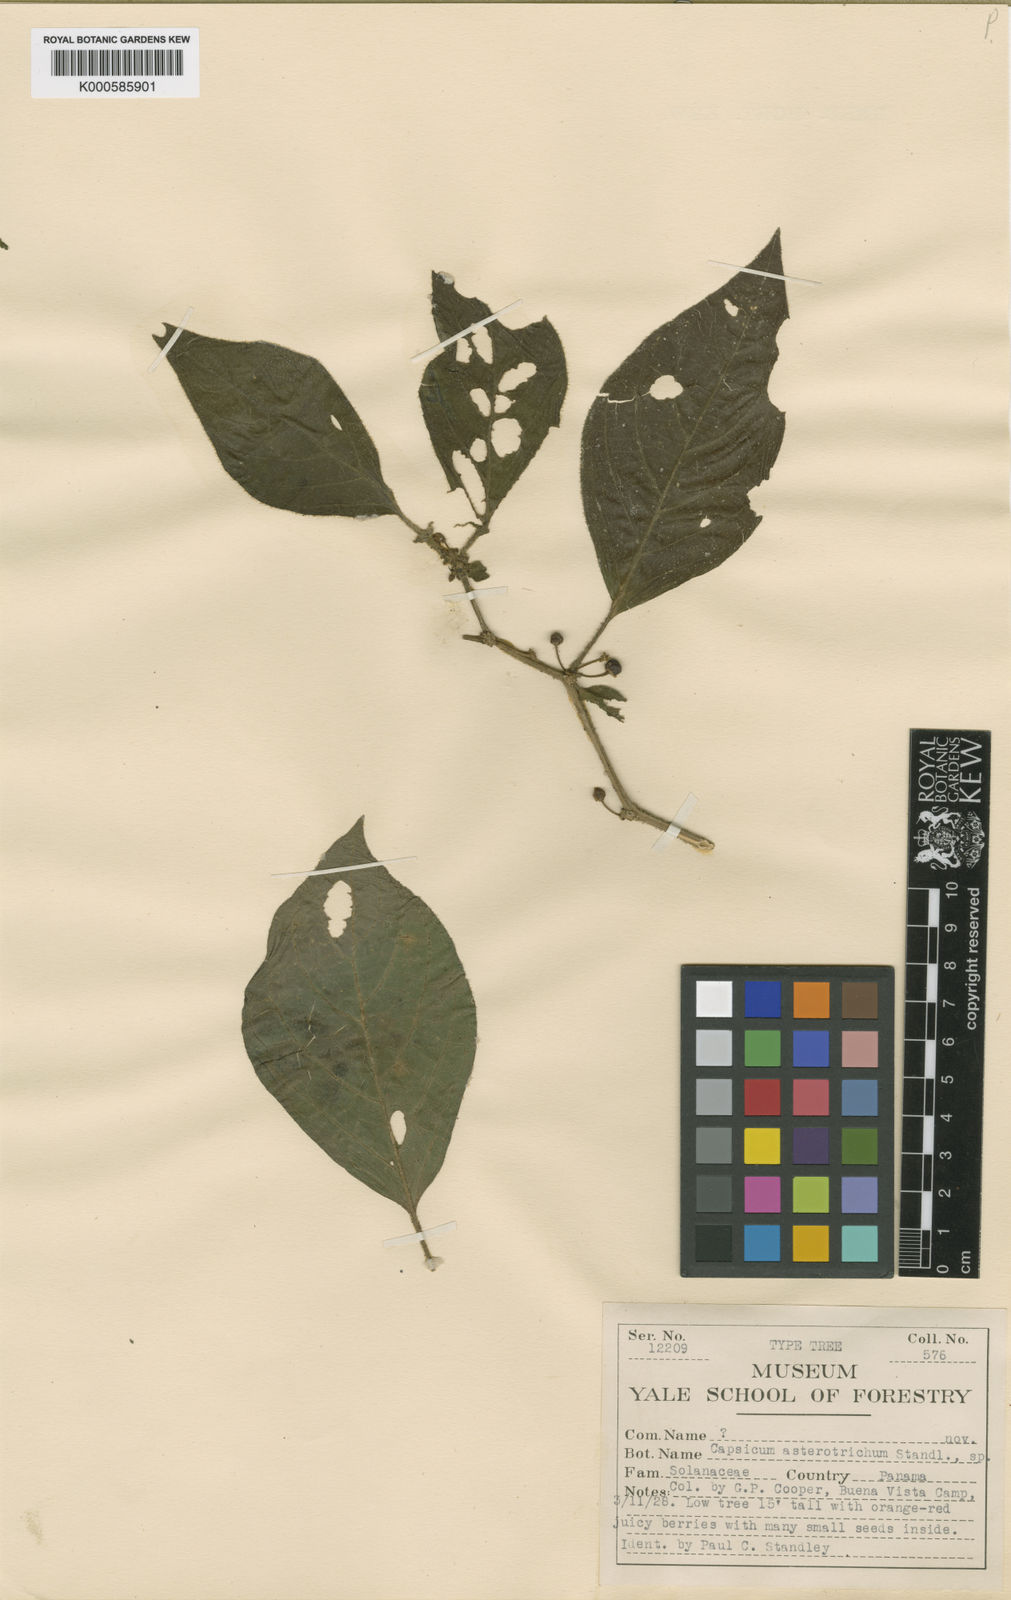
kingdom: Plantae
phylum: Tracheophyta
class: Magnoliopsida
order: Solanales
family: Solanaceae
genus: Witheringia
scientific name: Witheringia asterotricha
